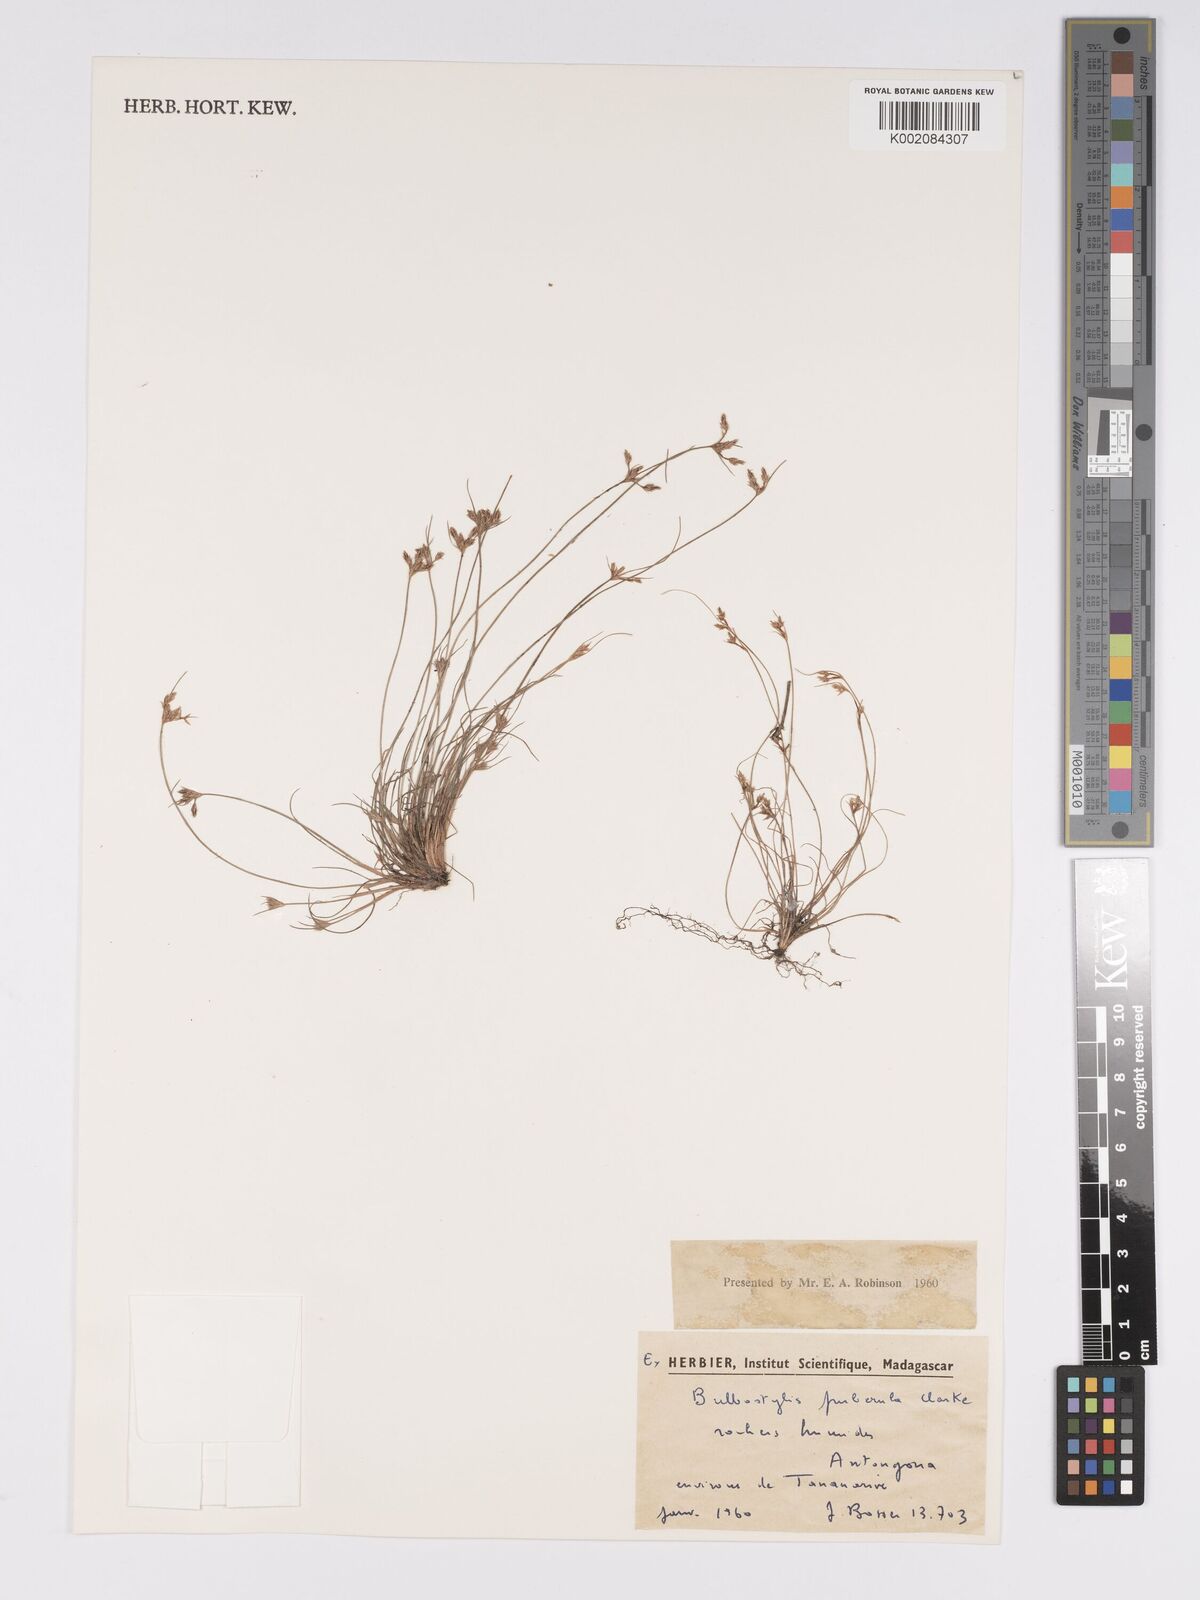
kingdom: Plantae
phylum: Tracheophyta
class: Liliopsida
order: Poales
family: Cyperaceae
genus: Bulbostylis
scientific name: Bulbostylis thouarsii
